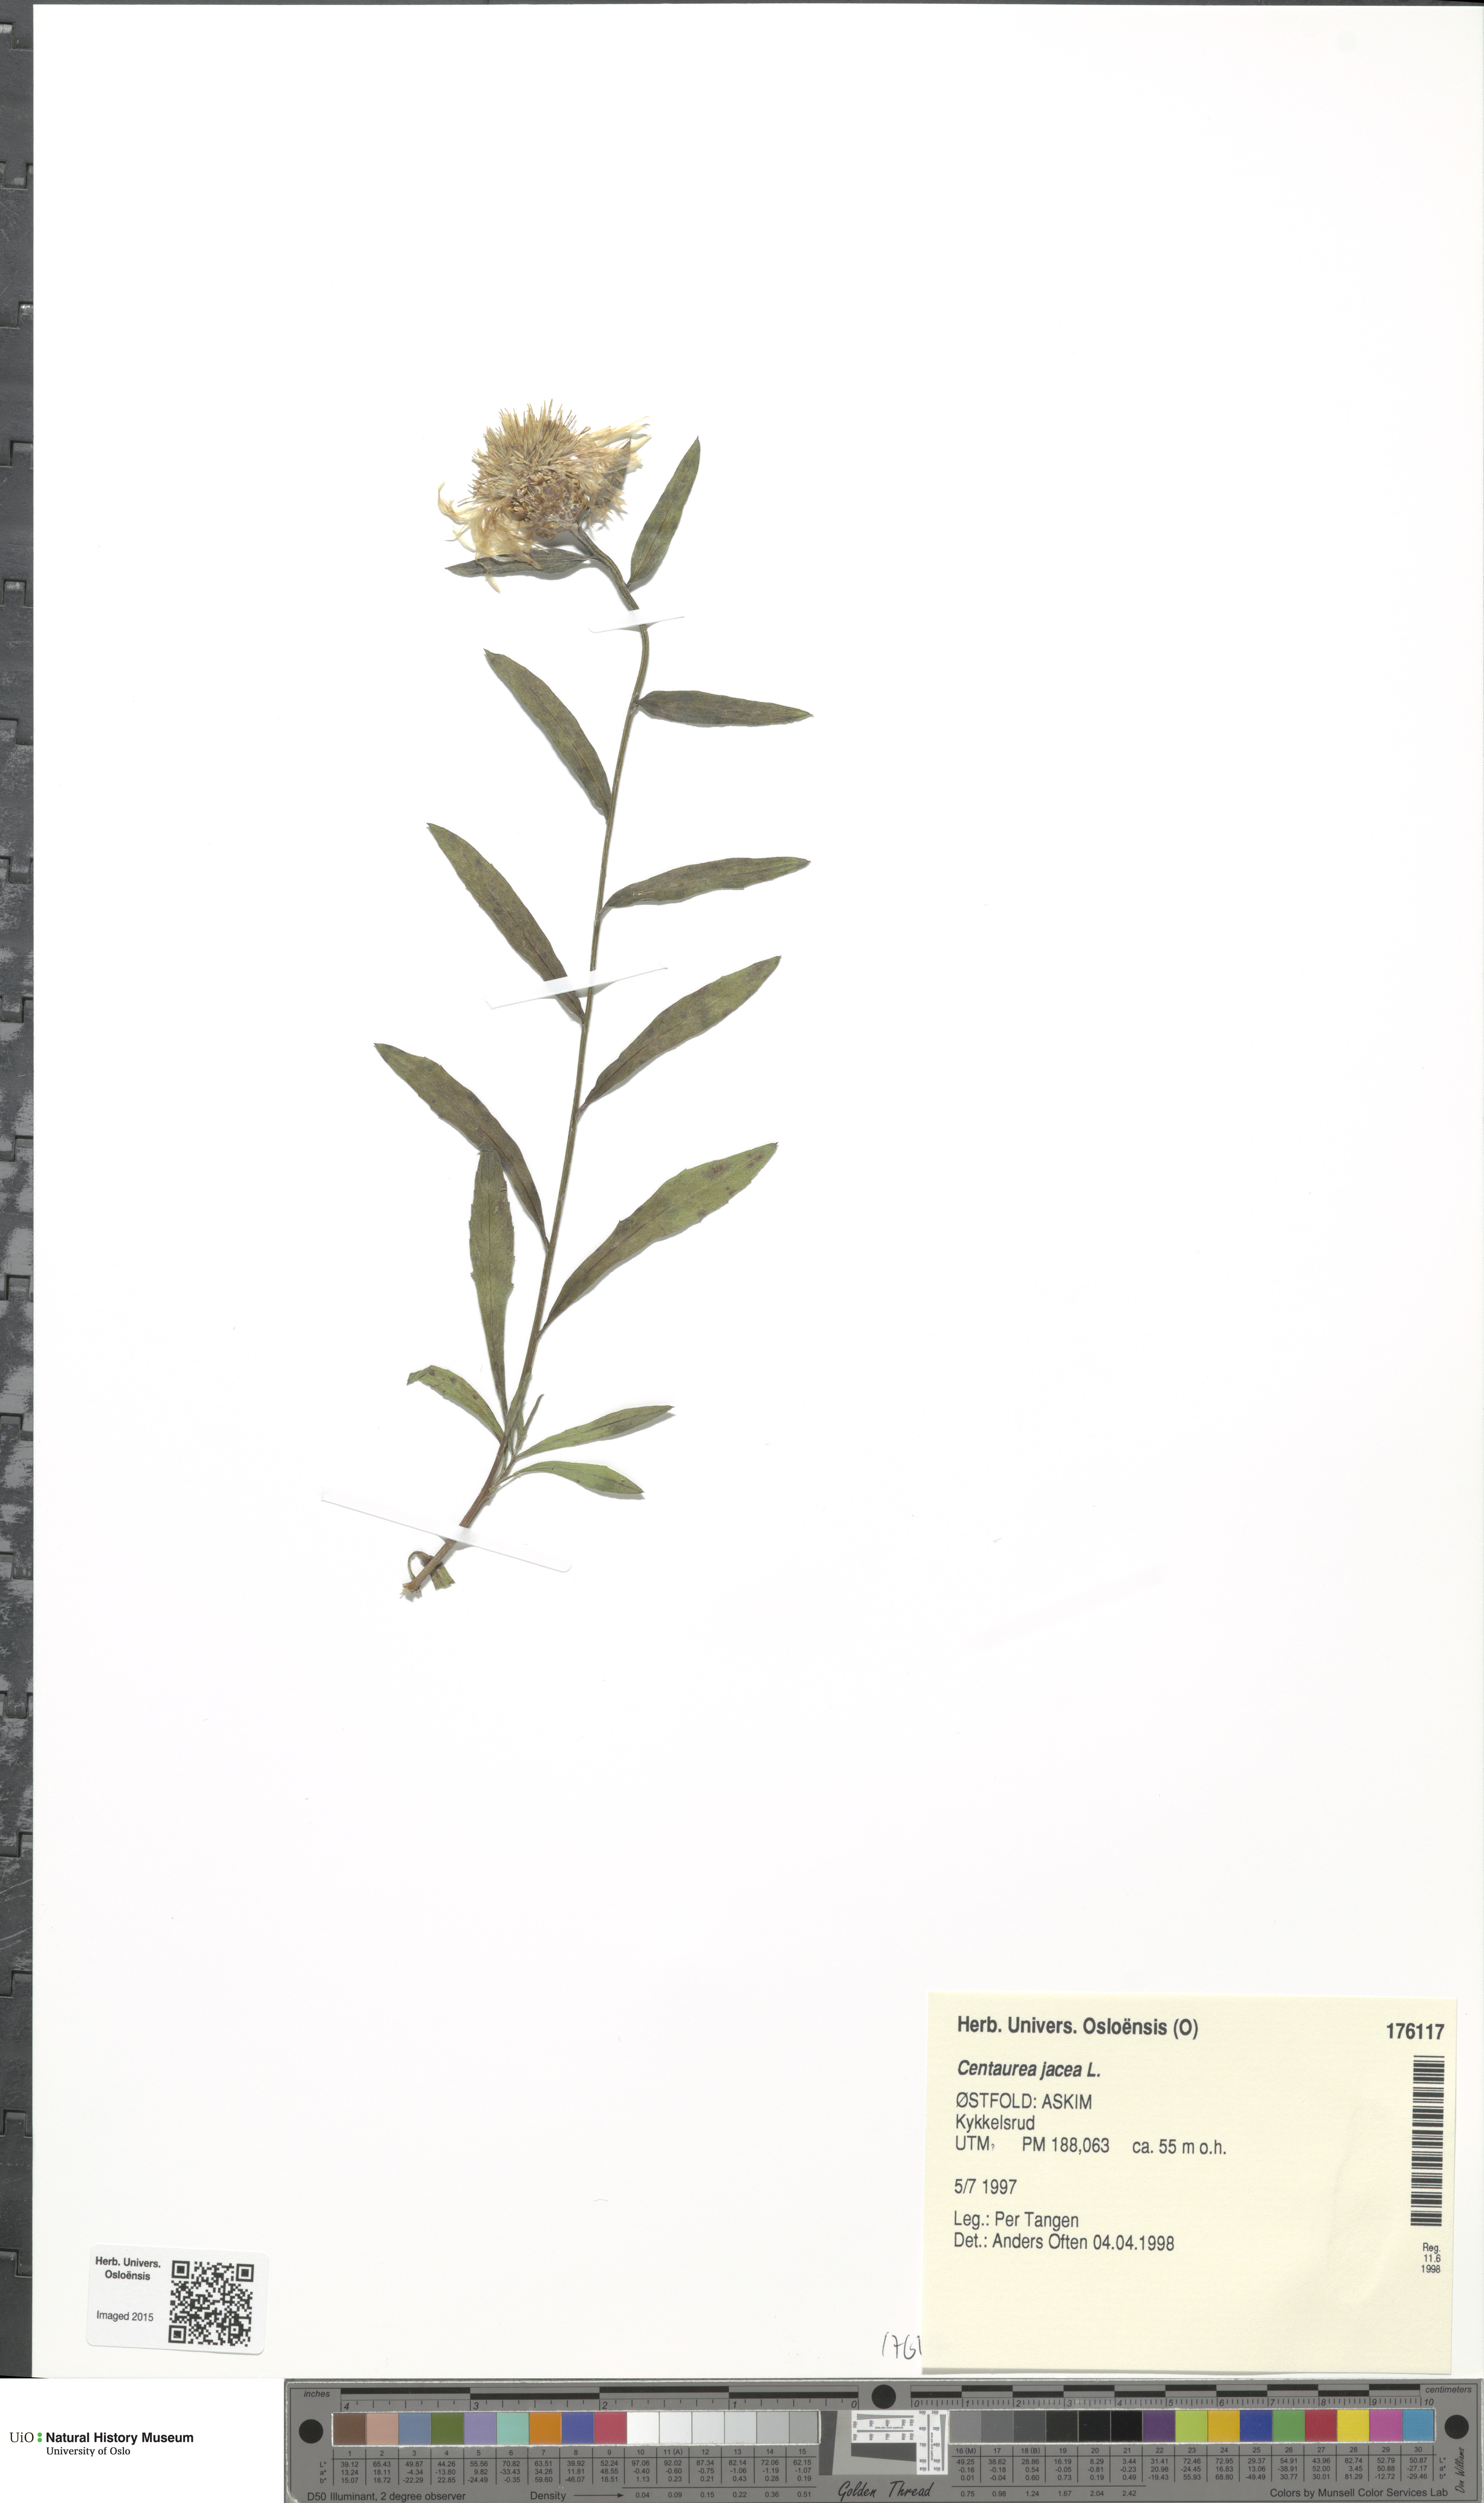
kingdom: Plantae
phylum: Tracheophyta
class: Magnoliopsida
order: Asterales
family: Asteraceae
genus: Centaurea
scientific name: Centaurea jacea
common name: Brown knapweed
